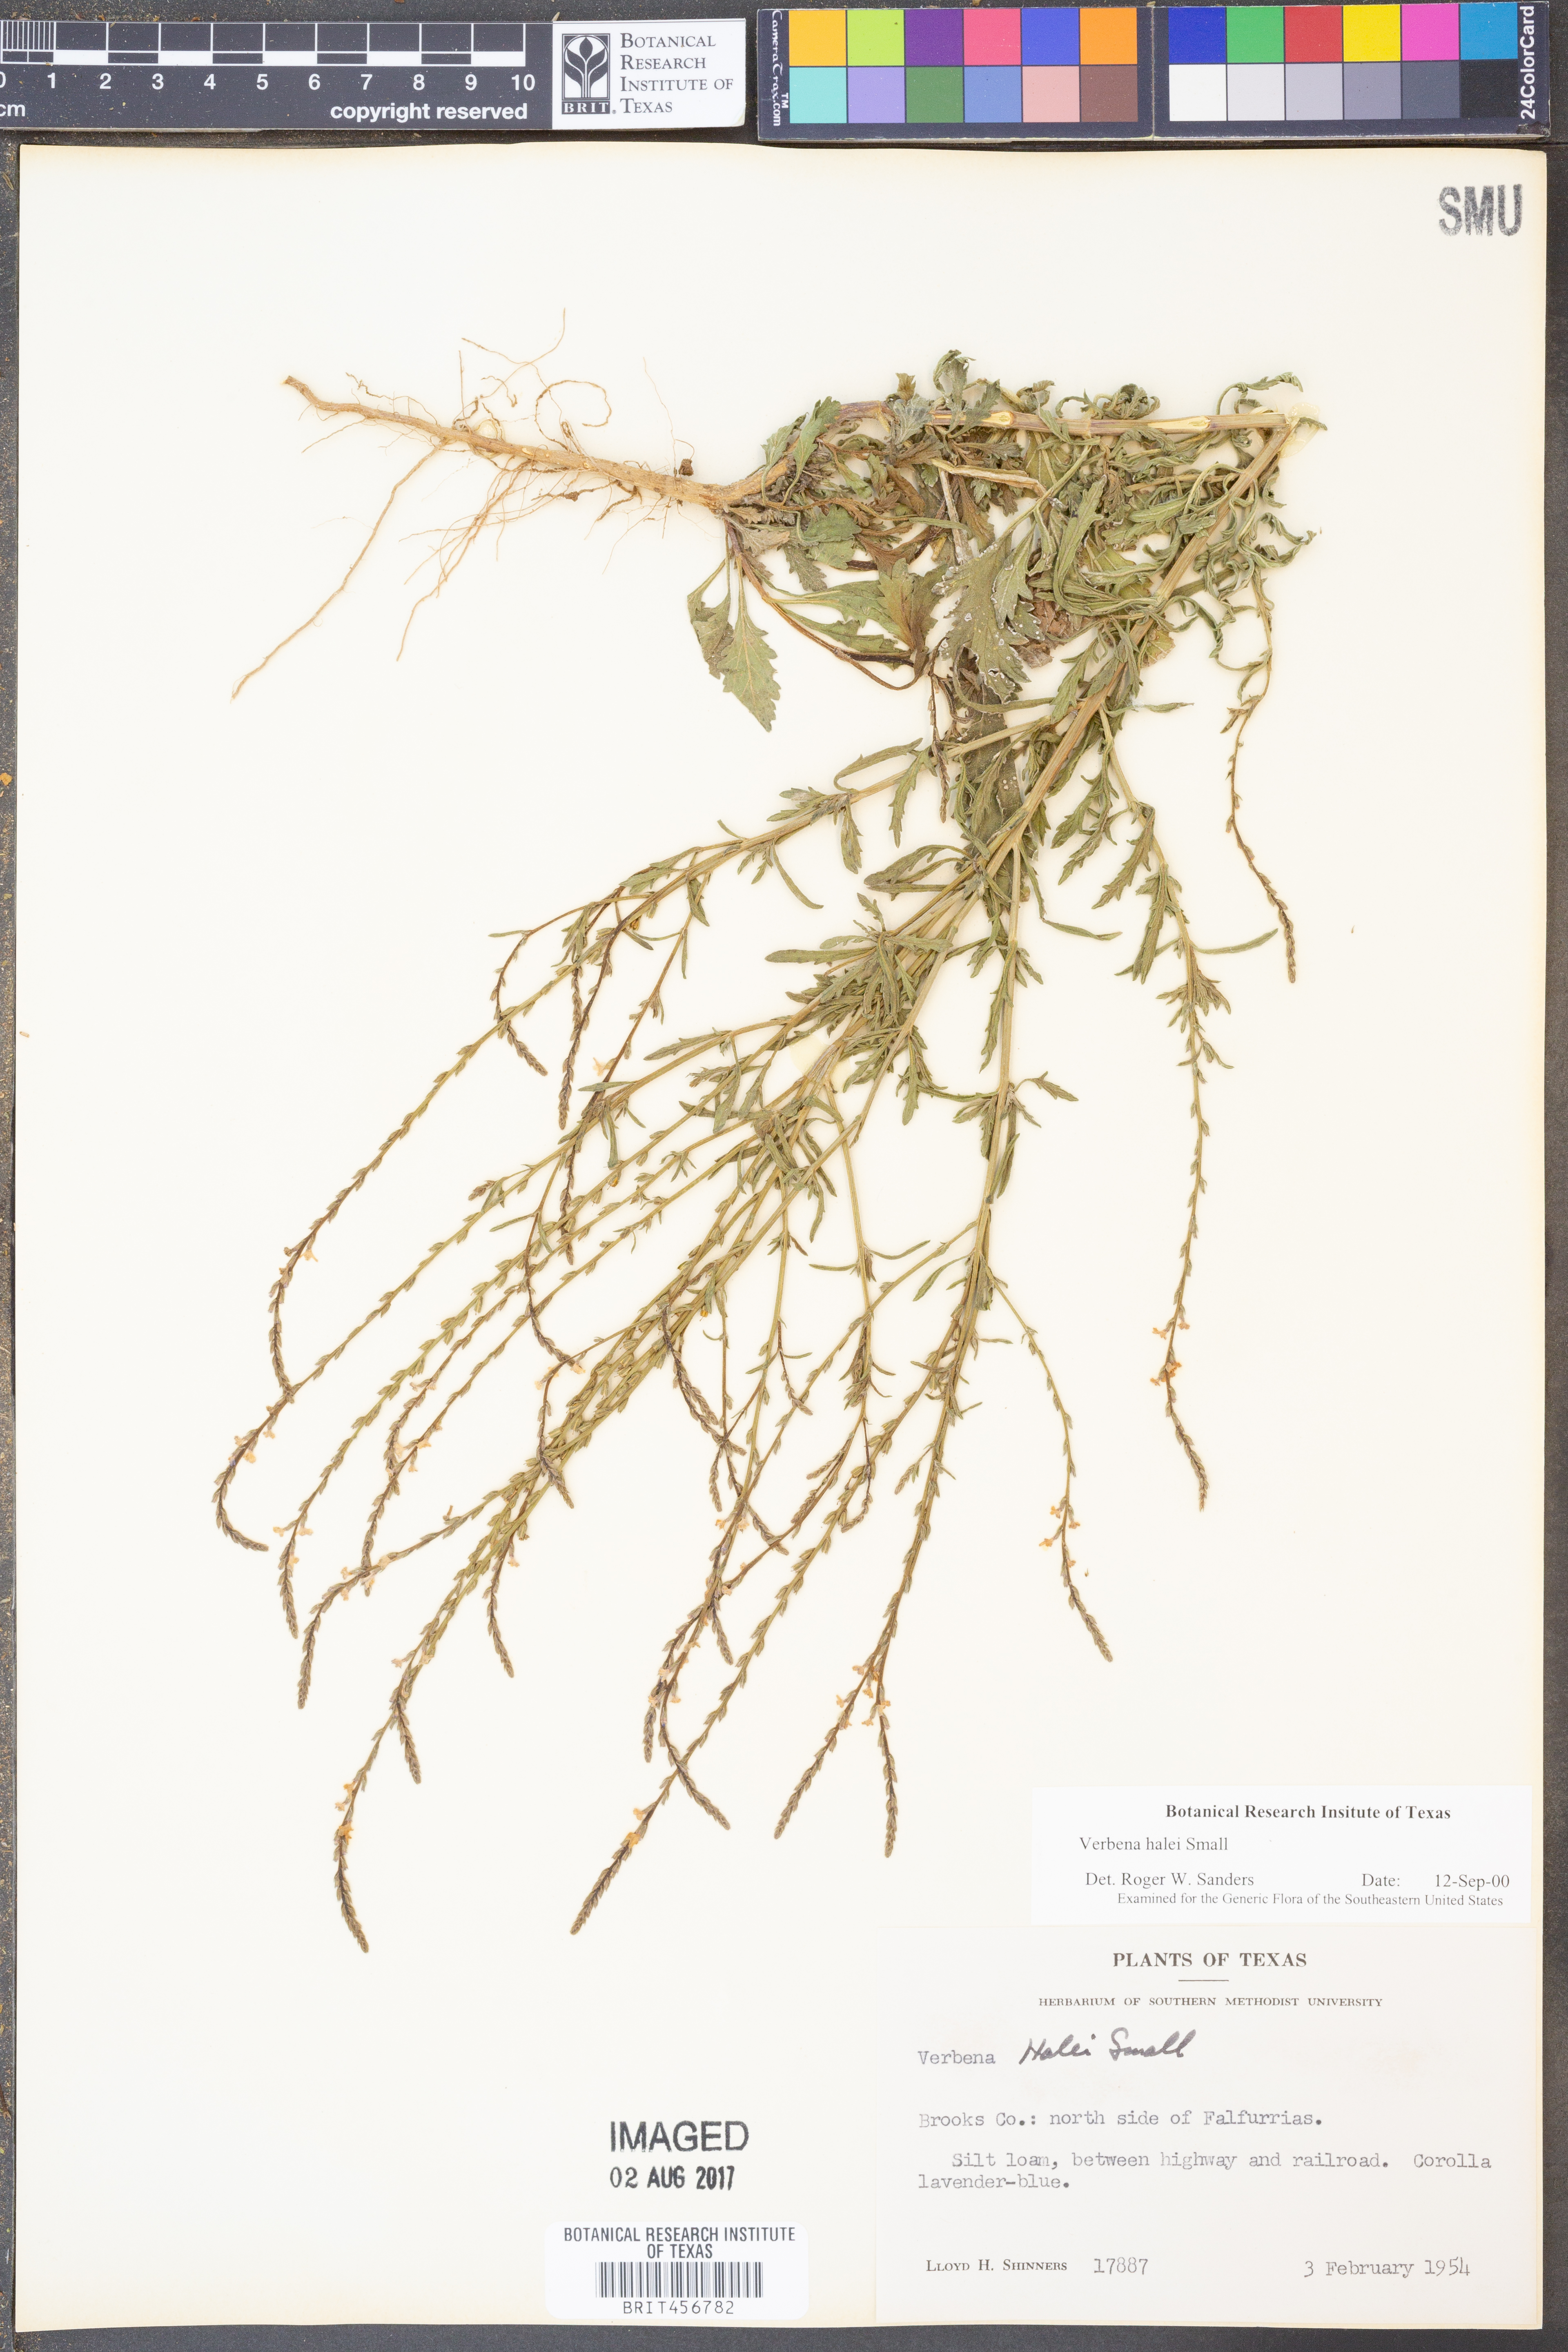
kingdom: Plantae
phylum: Tracheophyta
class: Magnoliopsida
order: Lamiales
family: Verbenaceae
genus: Verbena
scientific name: Verbena halei
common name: Texas vervain
